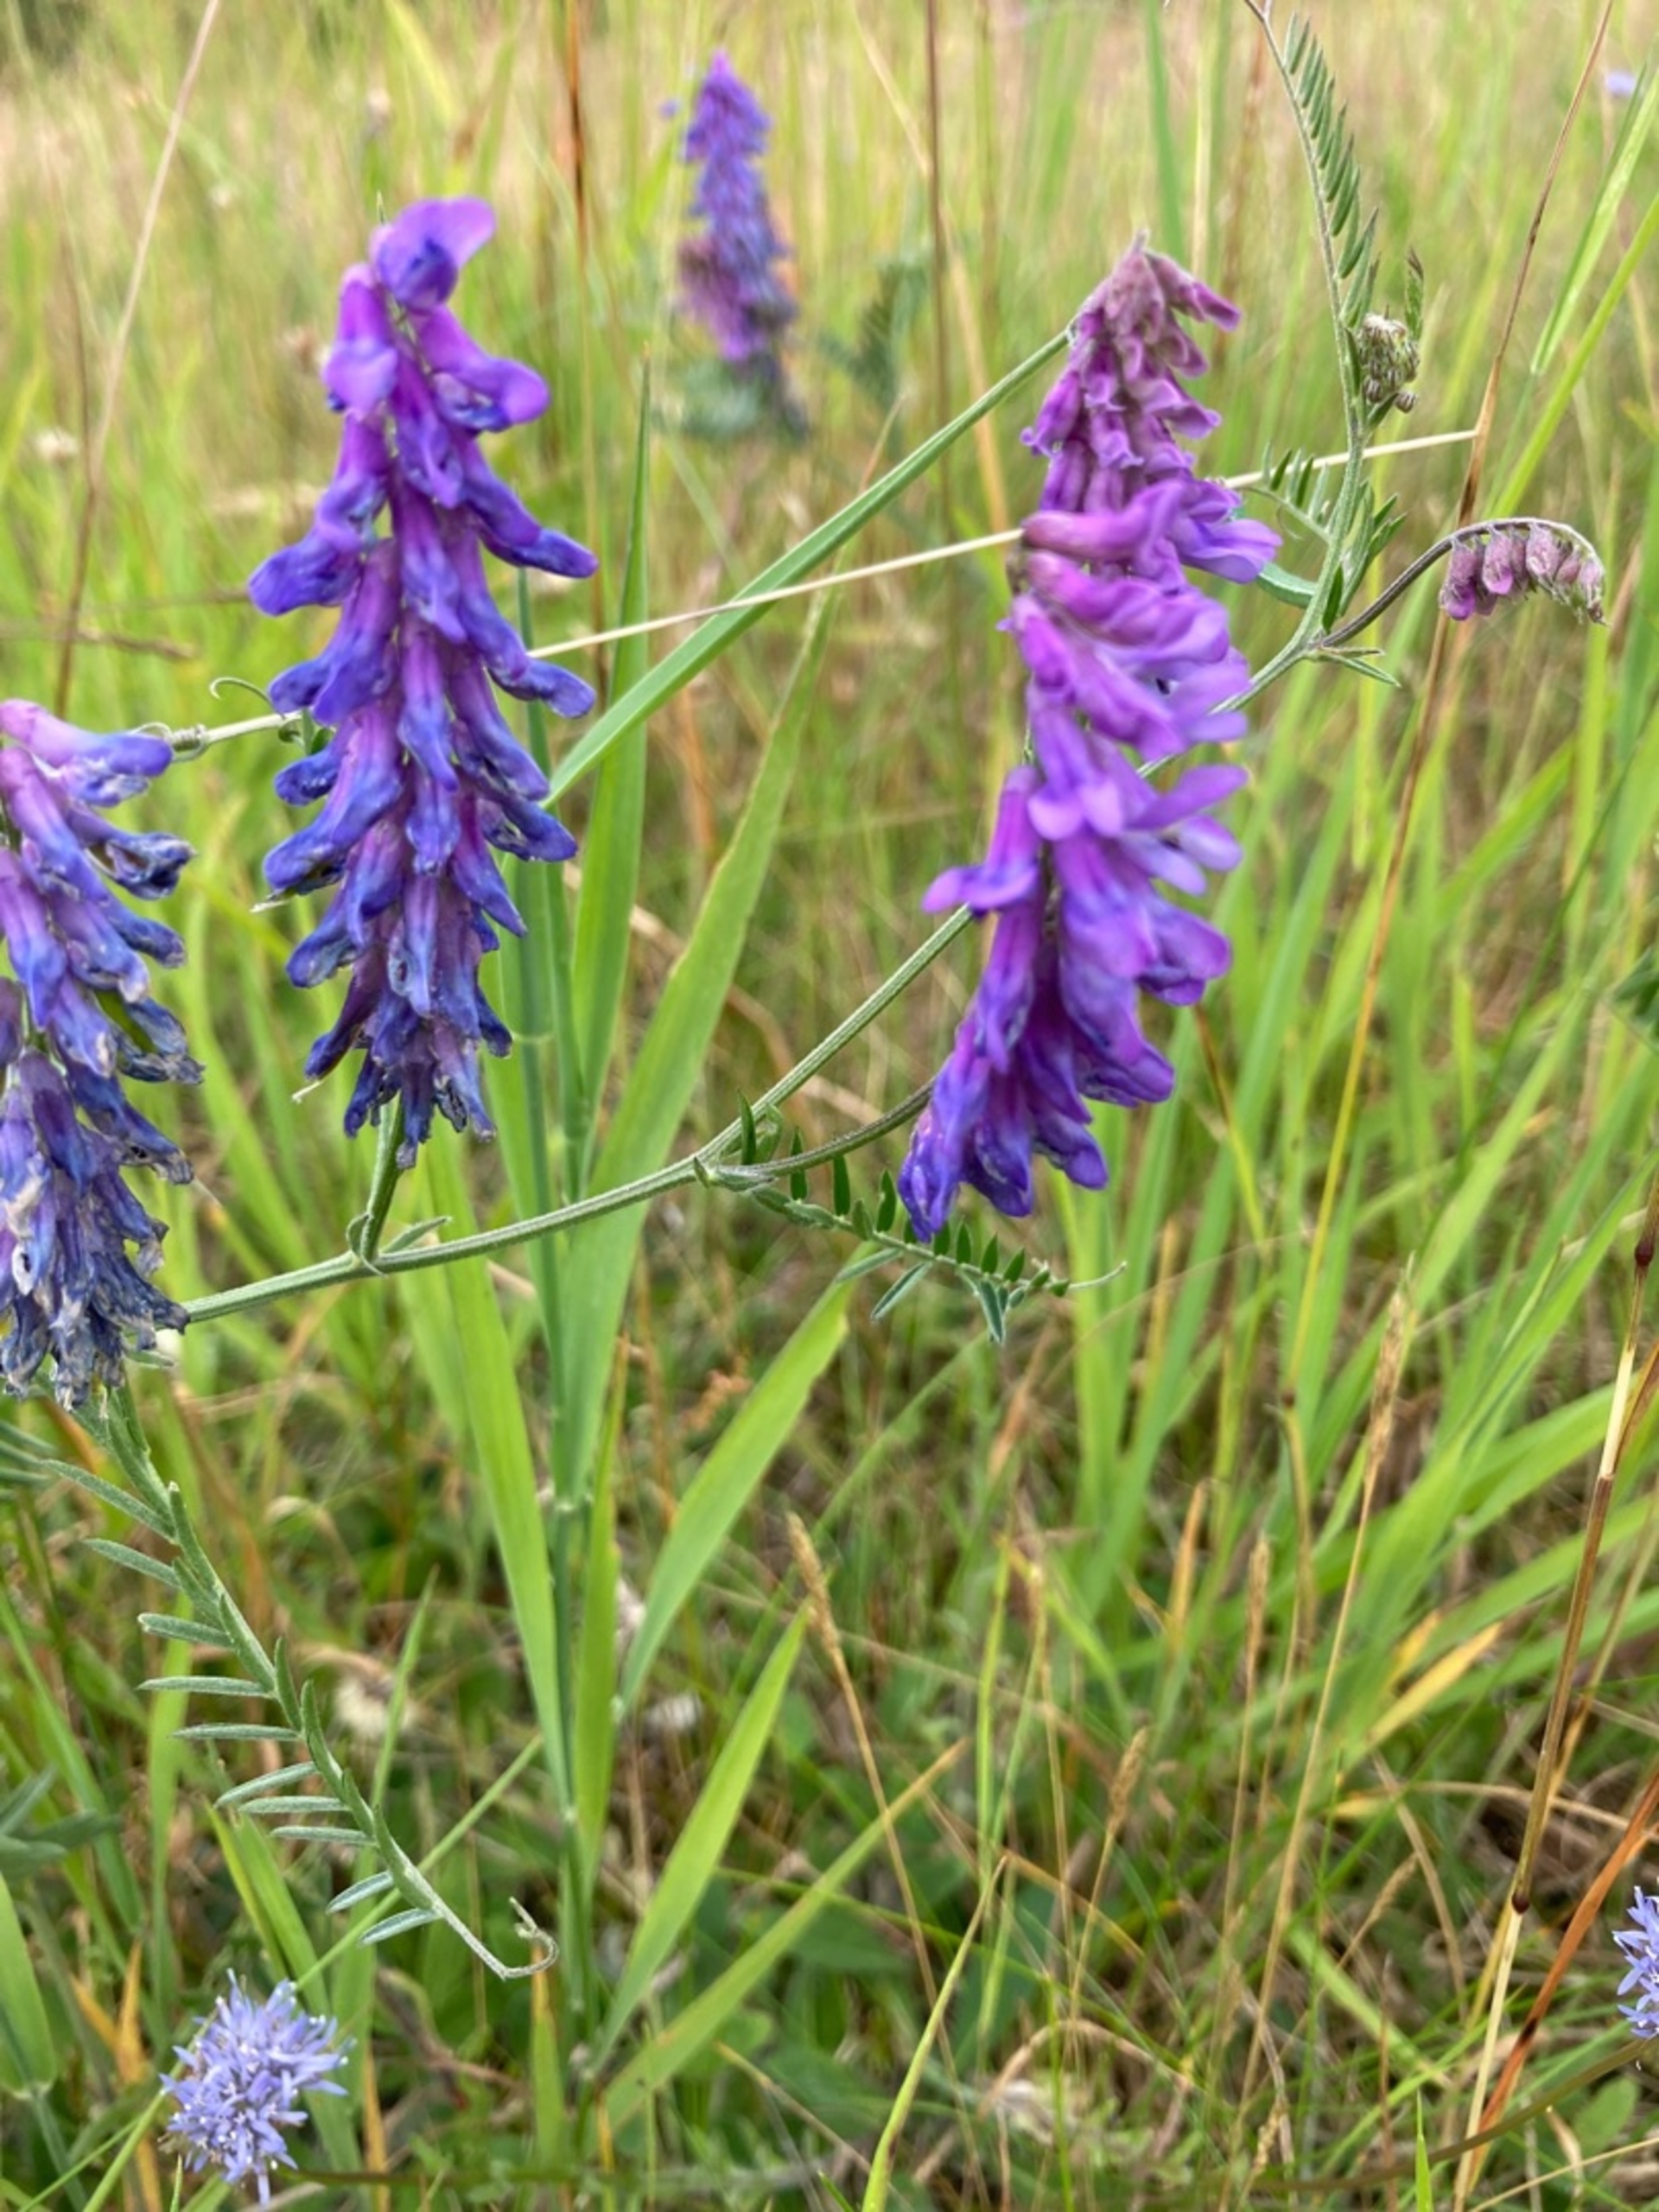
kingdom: Plantae
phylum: Tracheophyta
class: Magnoliopsida
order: Fabales
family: Fabaceae
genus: Vicia
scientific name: Vicia cracca
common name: Muse-vikke
